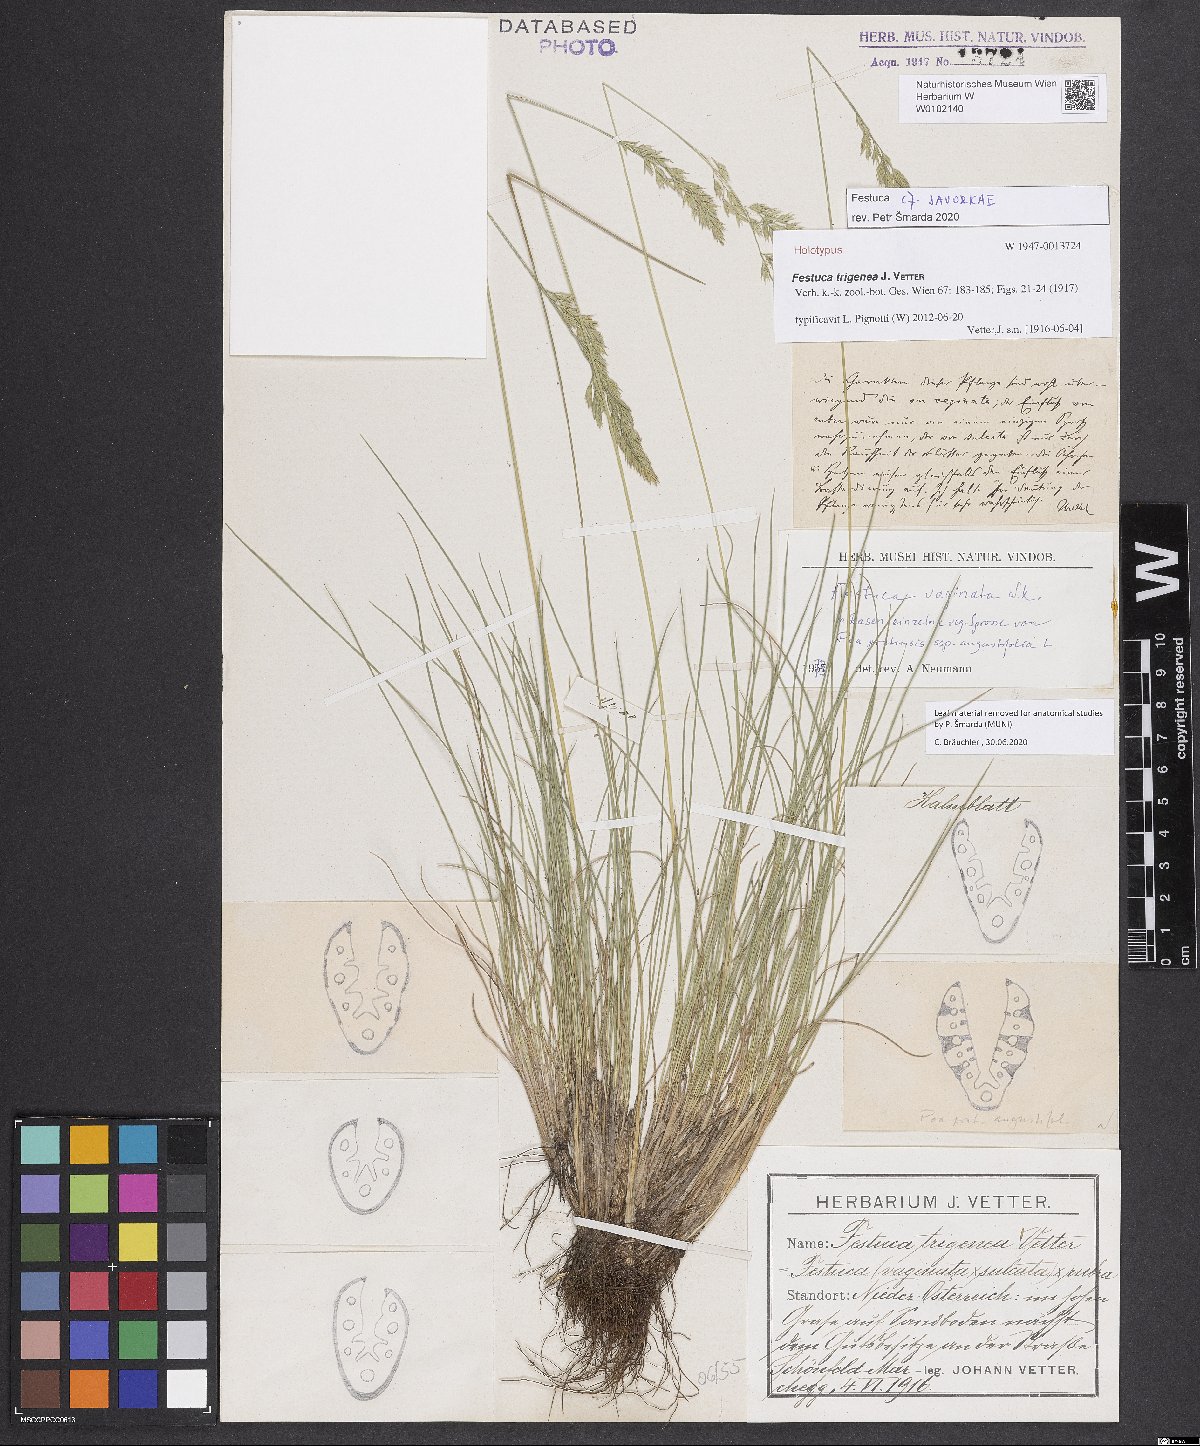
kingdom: Plantae
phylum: Tracheophyta
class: Liliopsida
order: Poales
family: Poaceae
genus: Festuca
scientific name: Festuca vaginata
